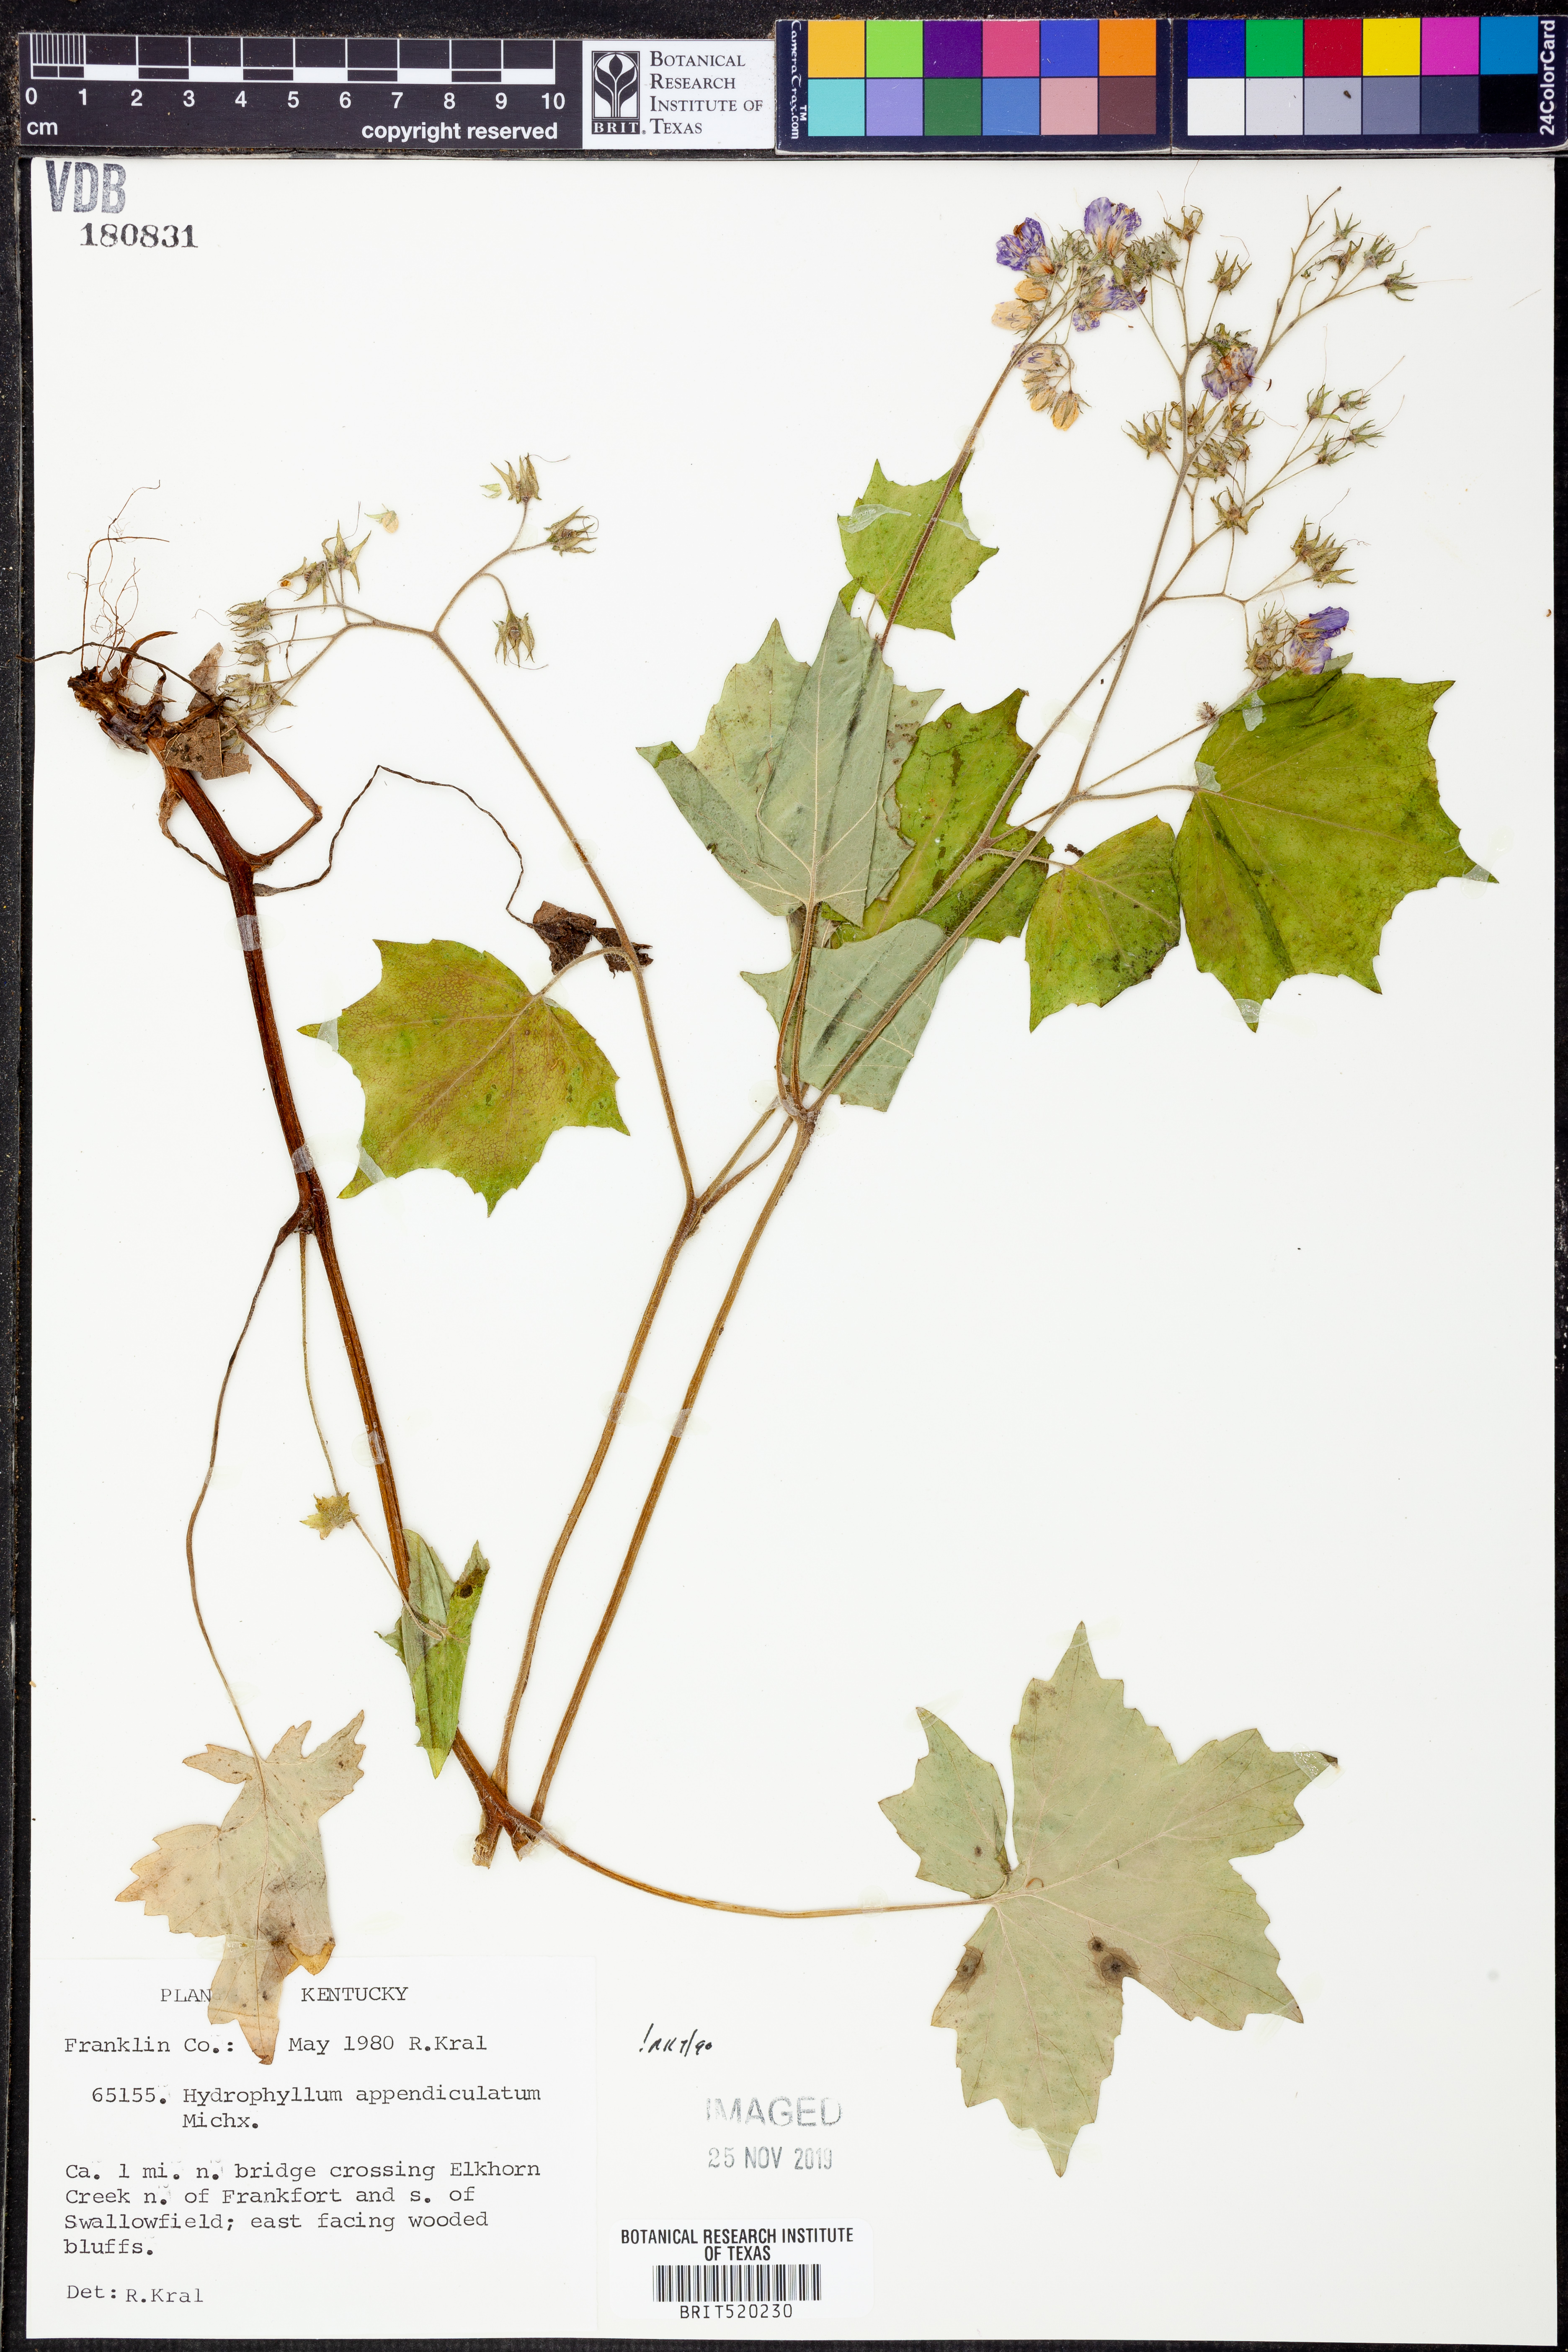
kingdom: Plantae
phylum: Tracheophyta
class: Magnoliopsida
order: Boraginales
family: Hydrophyllaceae
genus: Hydrophyllum
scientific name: Hydrophyllum appendiculatum
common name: Appendaged waterleaf
